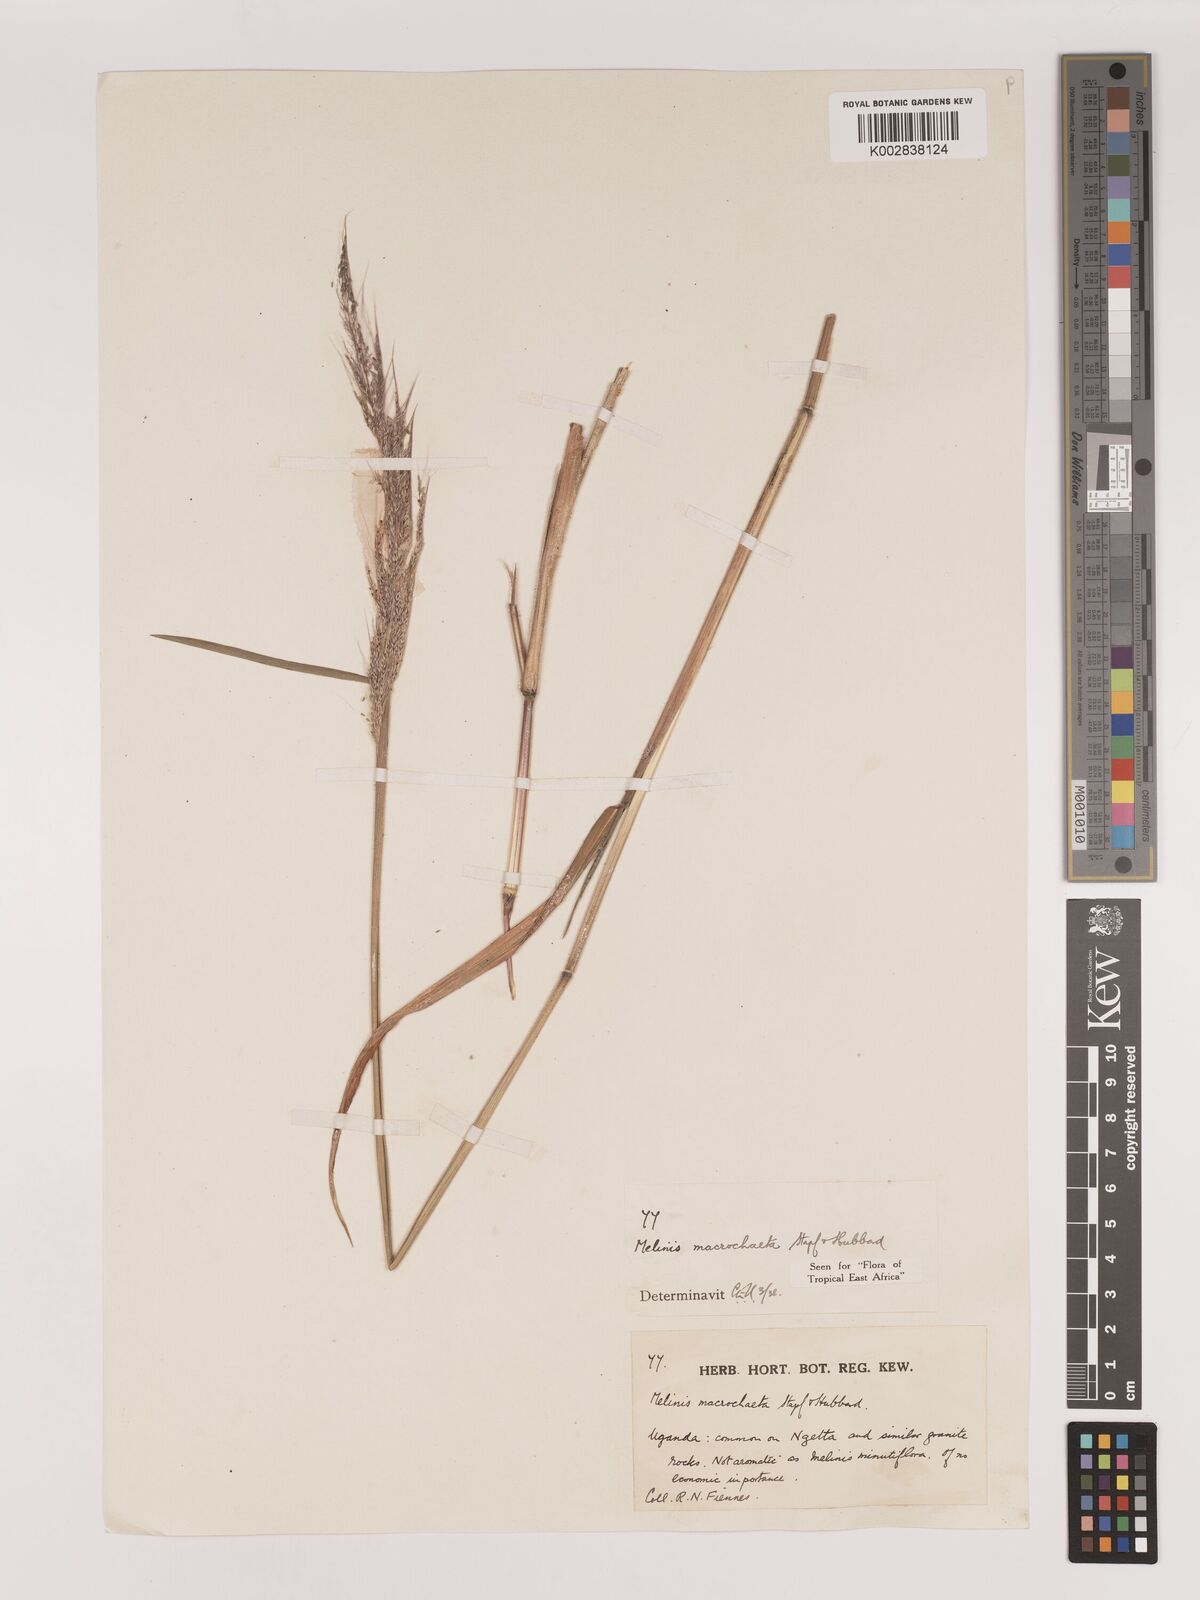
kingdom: Plantae
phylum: Tracheophyta
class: Liliopsida
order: Poales
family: Poaceae
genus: Melinis
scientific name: Melinis macrochaeta
